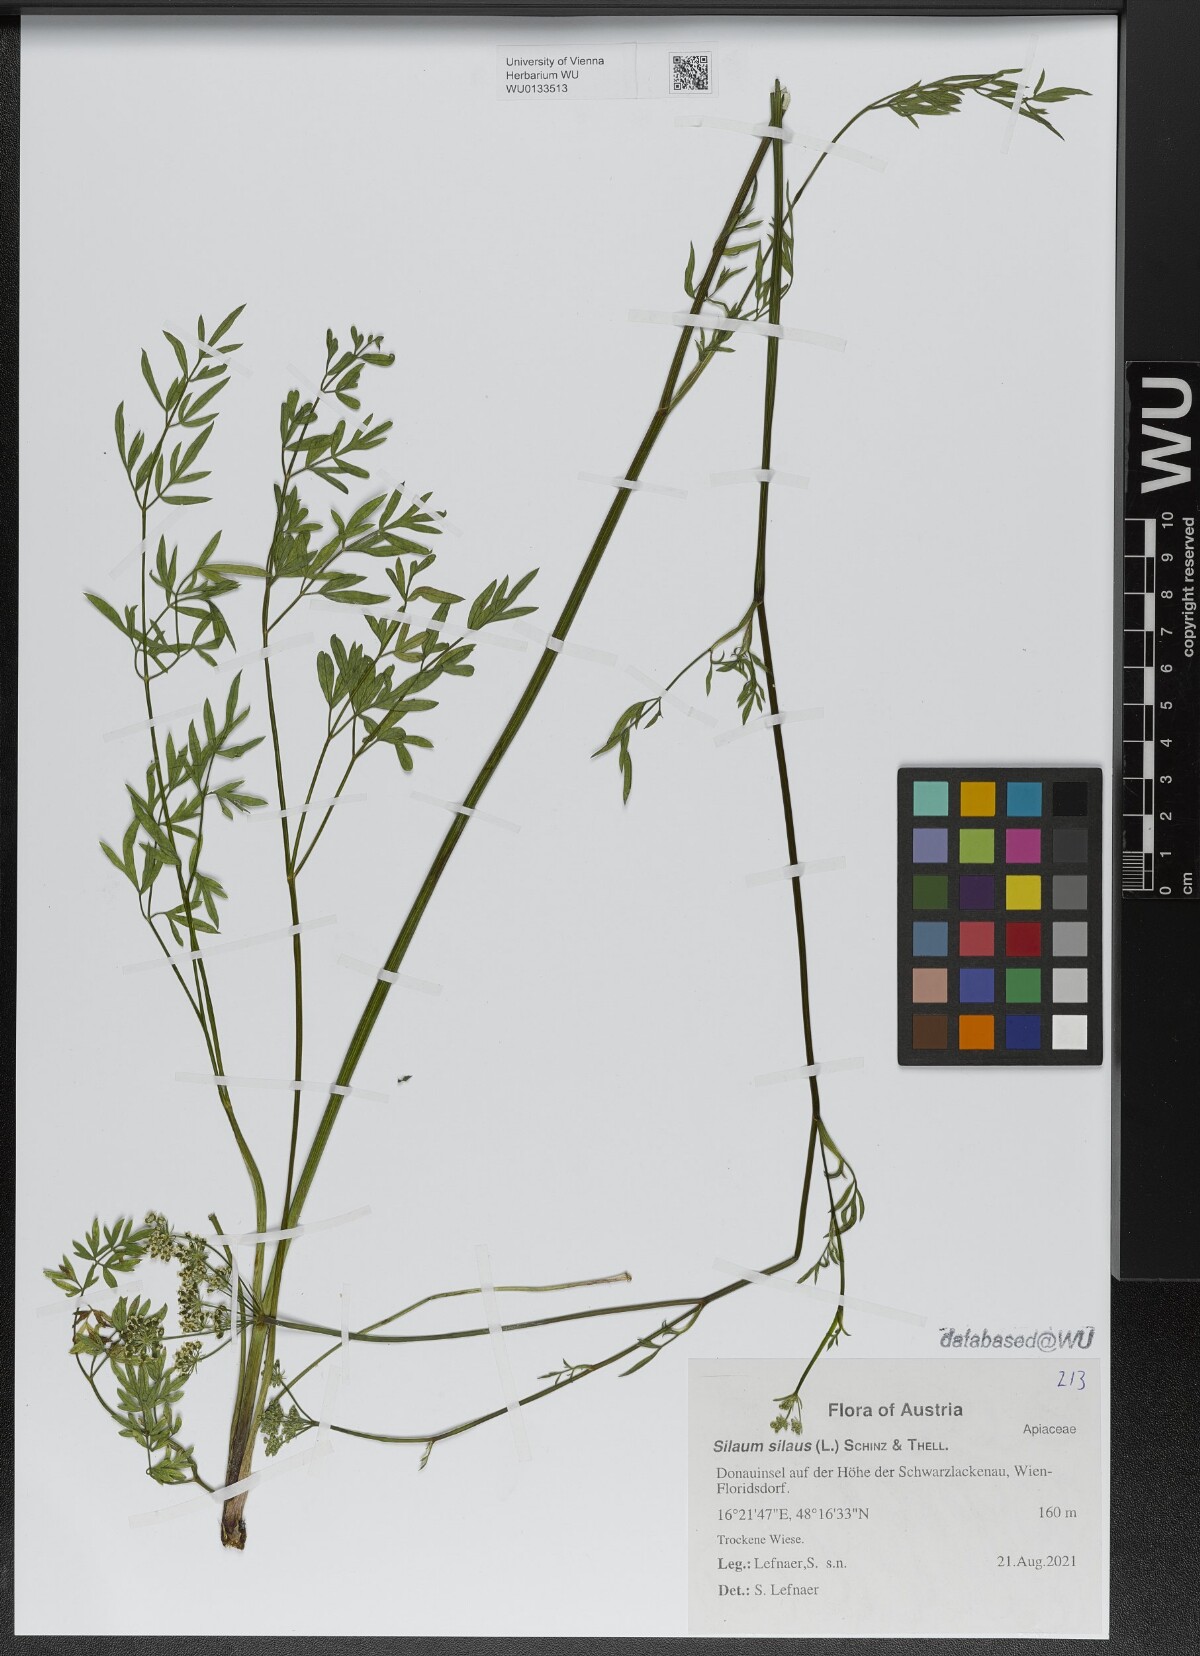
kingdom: Plantae
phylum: Tracheophyta
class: Magnoliopsida
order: Apiales
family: Apiaceae
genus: Silaum
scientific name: Silaum silaus
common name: Pepper-saxifrage
